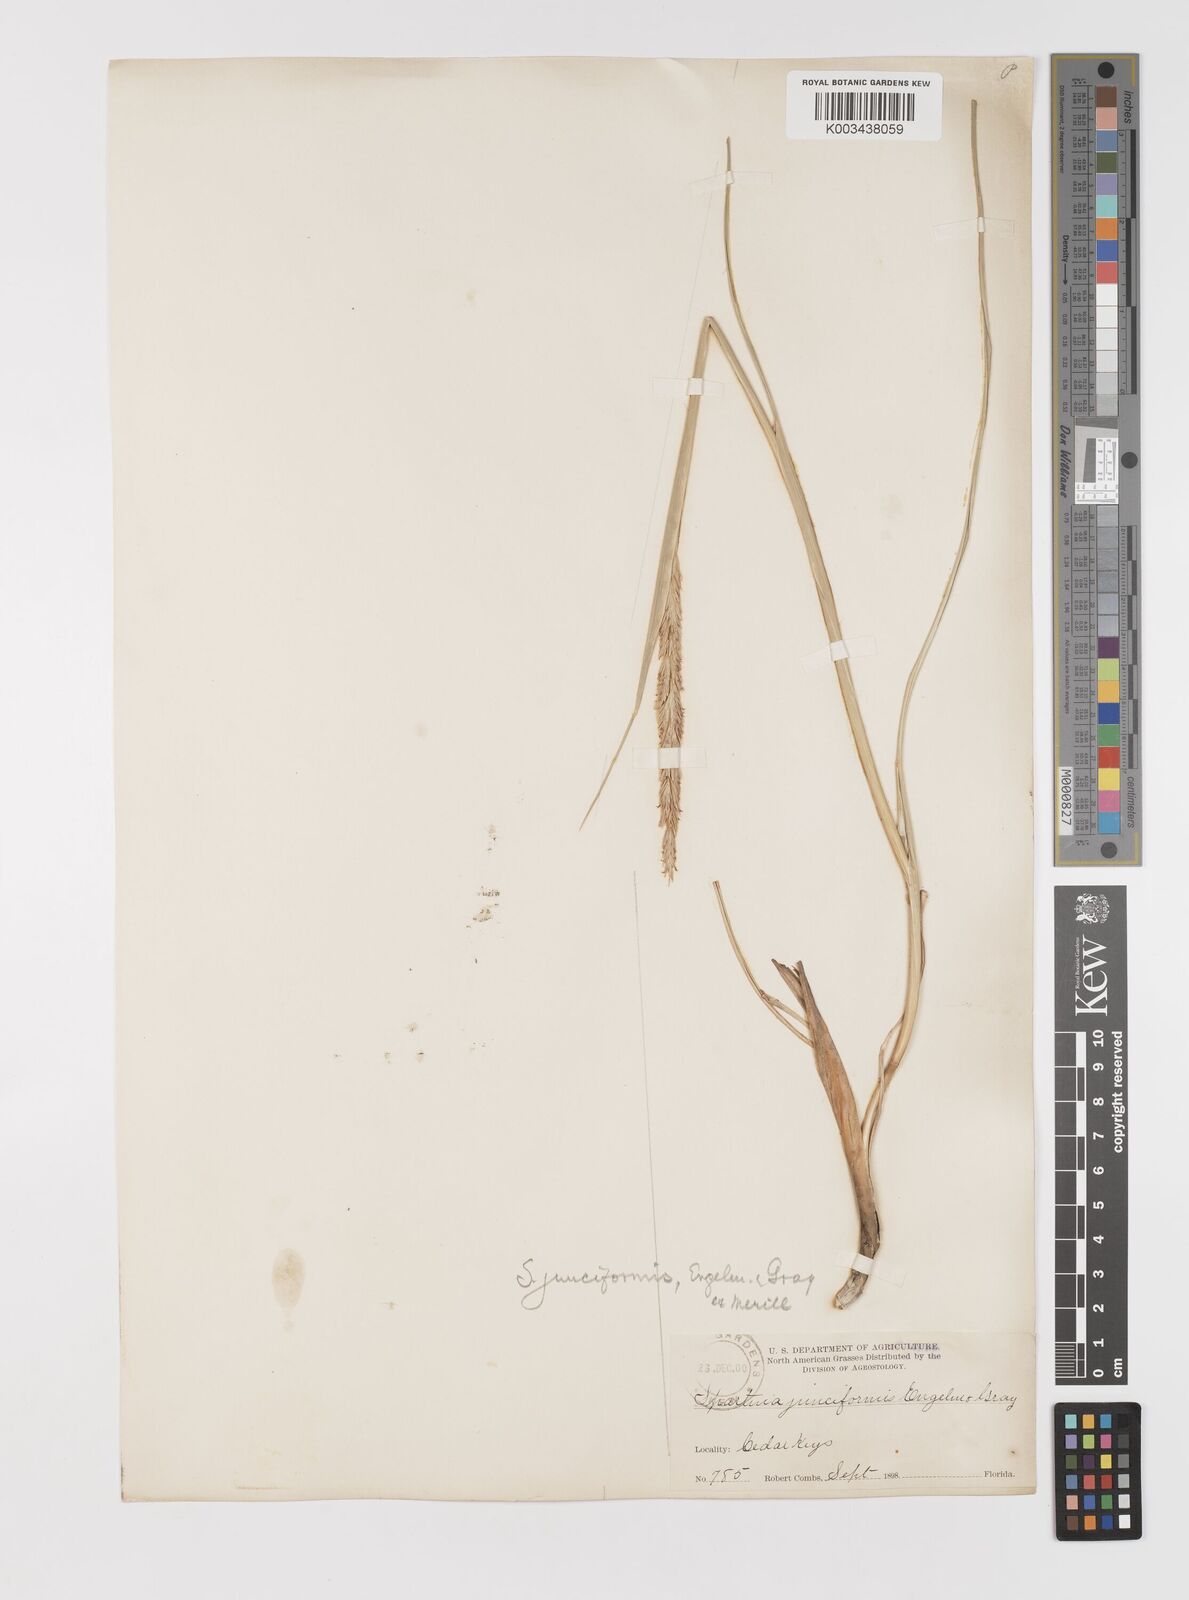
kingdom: Plantae
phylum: Tracheophyta
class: Liliopsida
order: Poales
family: Poaceae
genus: Sporobolus
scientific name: Sporobolus spartinae
